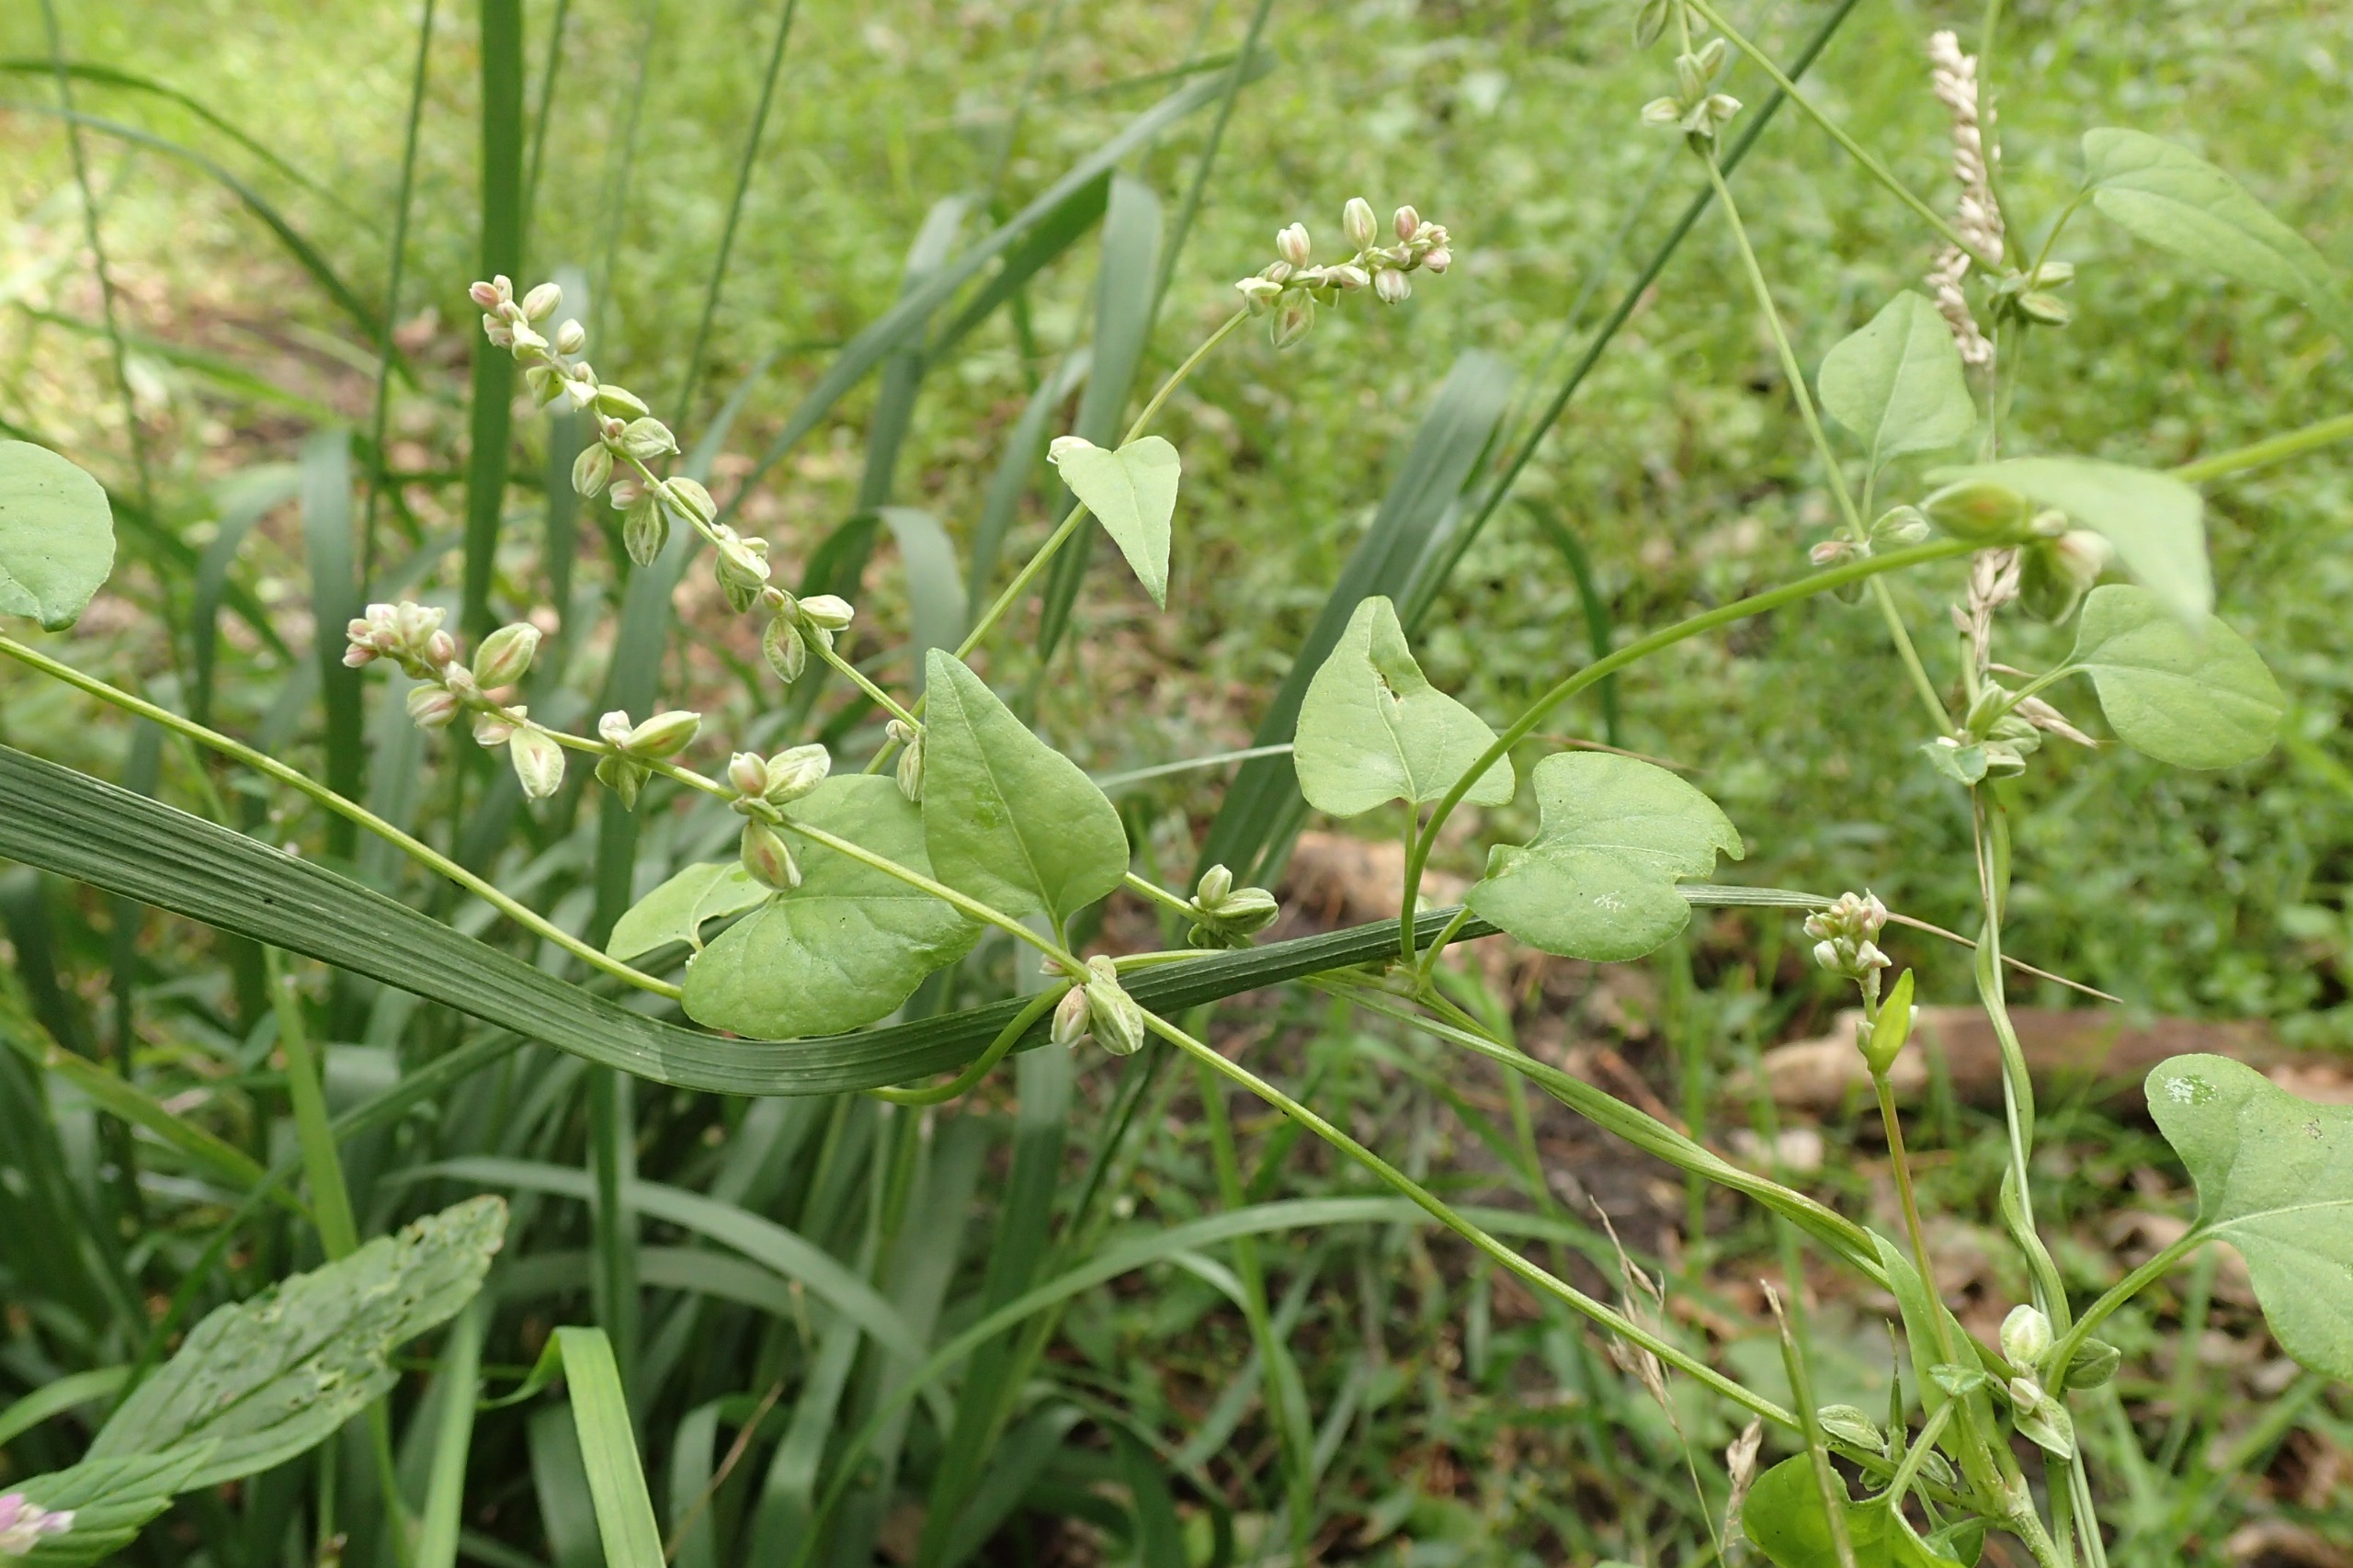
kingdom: Plantae
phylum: Tracheophyta
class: Magnoliopsida
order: Caryophyllales
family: Polygonaceae
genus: Fallopia
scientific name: Fallopia convolvulus
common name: Snerle-pileurt
